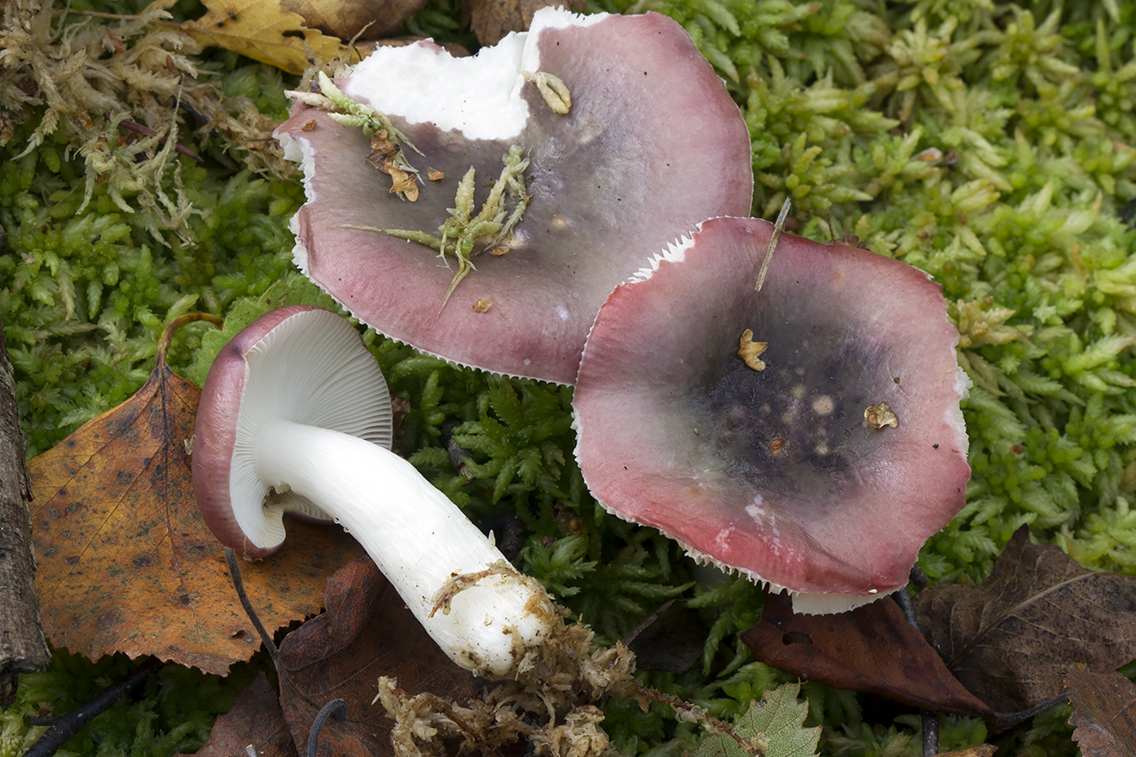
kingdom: Fungi
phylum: Basidiomycota
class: Agaricomycetes
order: Russulales
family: Russulaceae
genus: Russula
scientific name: Russula atrorubens
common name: sortrød skørhat
